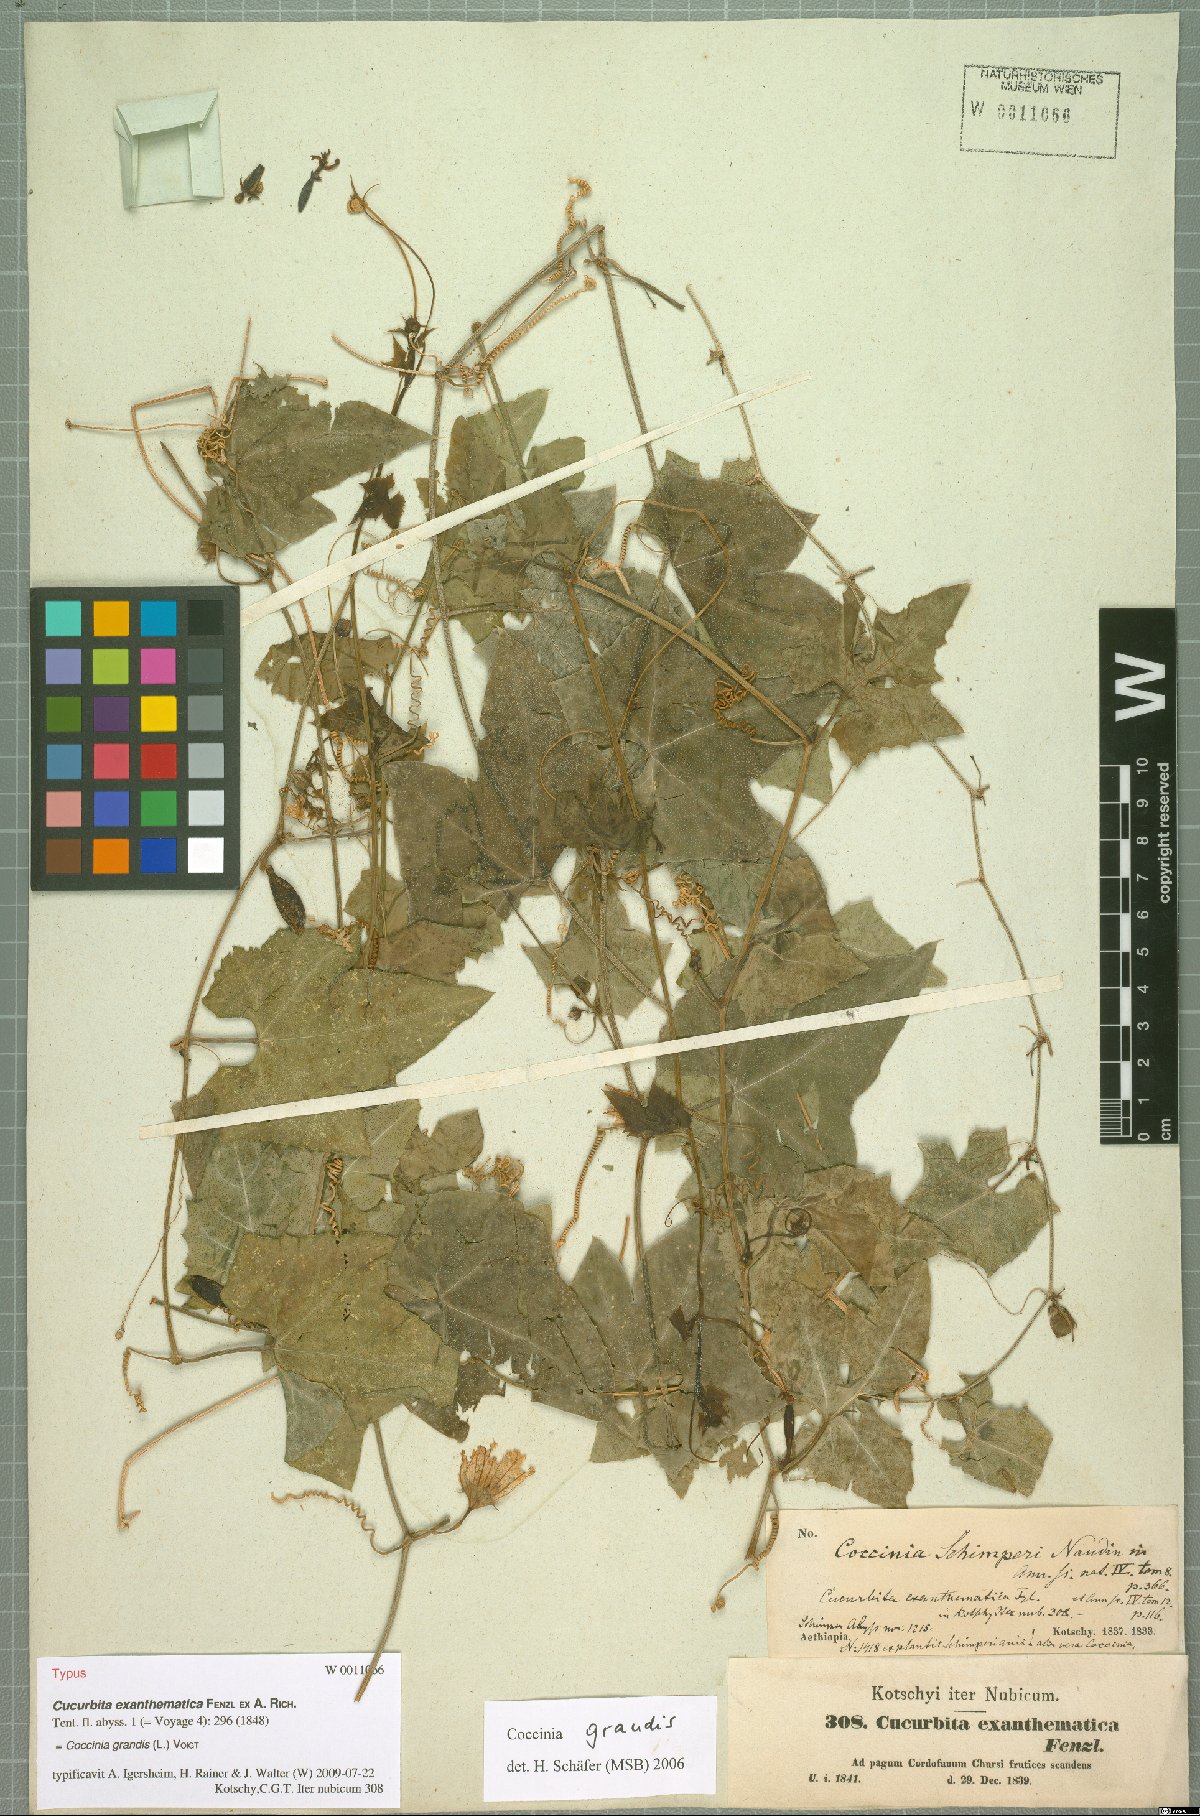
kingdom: Plantae
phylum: Tracheophyta
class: Magnoliopsida
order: Cucurbitales
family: Cucurbitaceae
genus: Coccinia
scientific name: Coccinia grandis
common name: Ivy gourd
